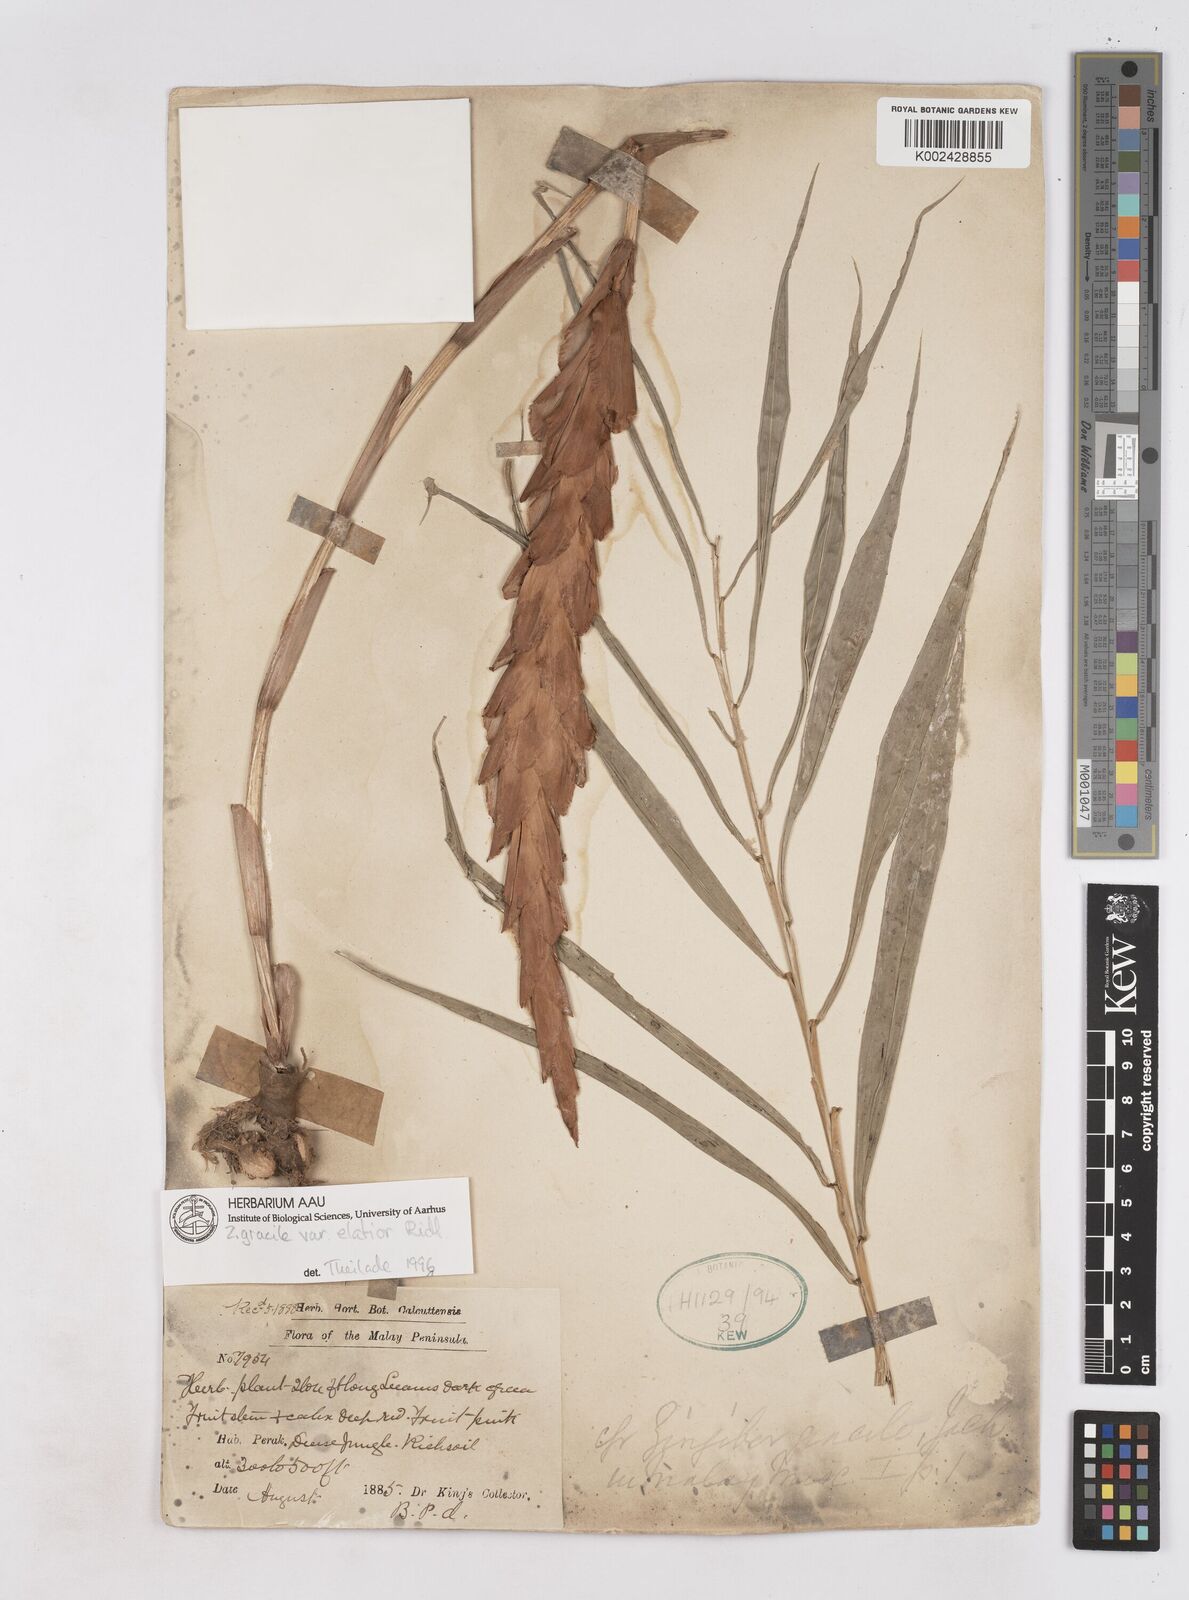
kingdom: Plantae
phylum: Tracheophyta
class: Liliopsida
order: Zingiberales
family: Zingiberaceae
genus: Zingiber
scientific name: Zingiber gracile
